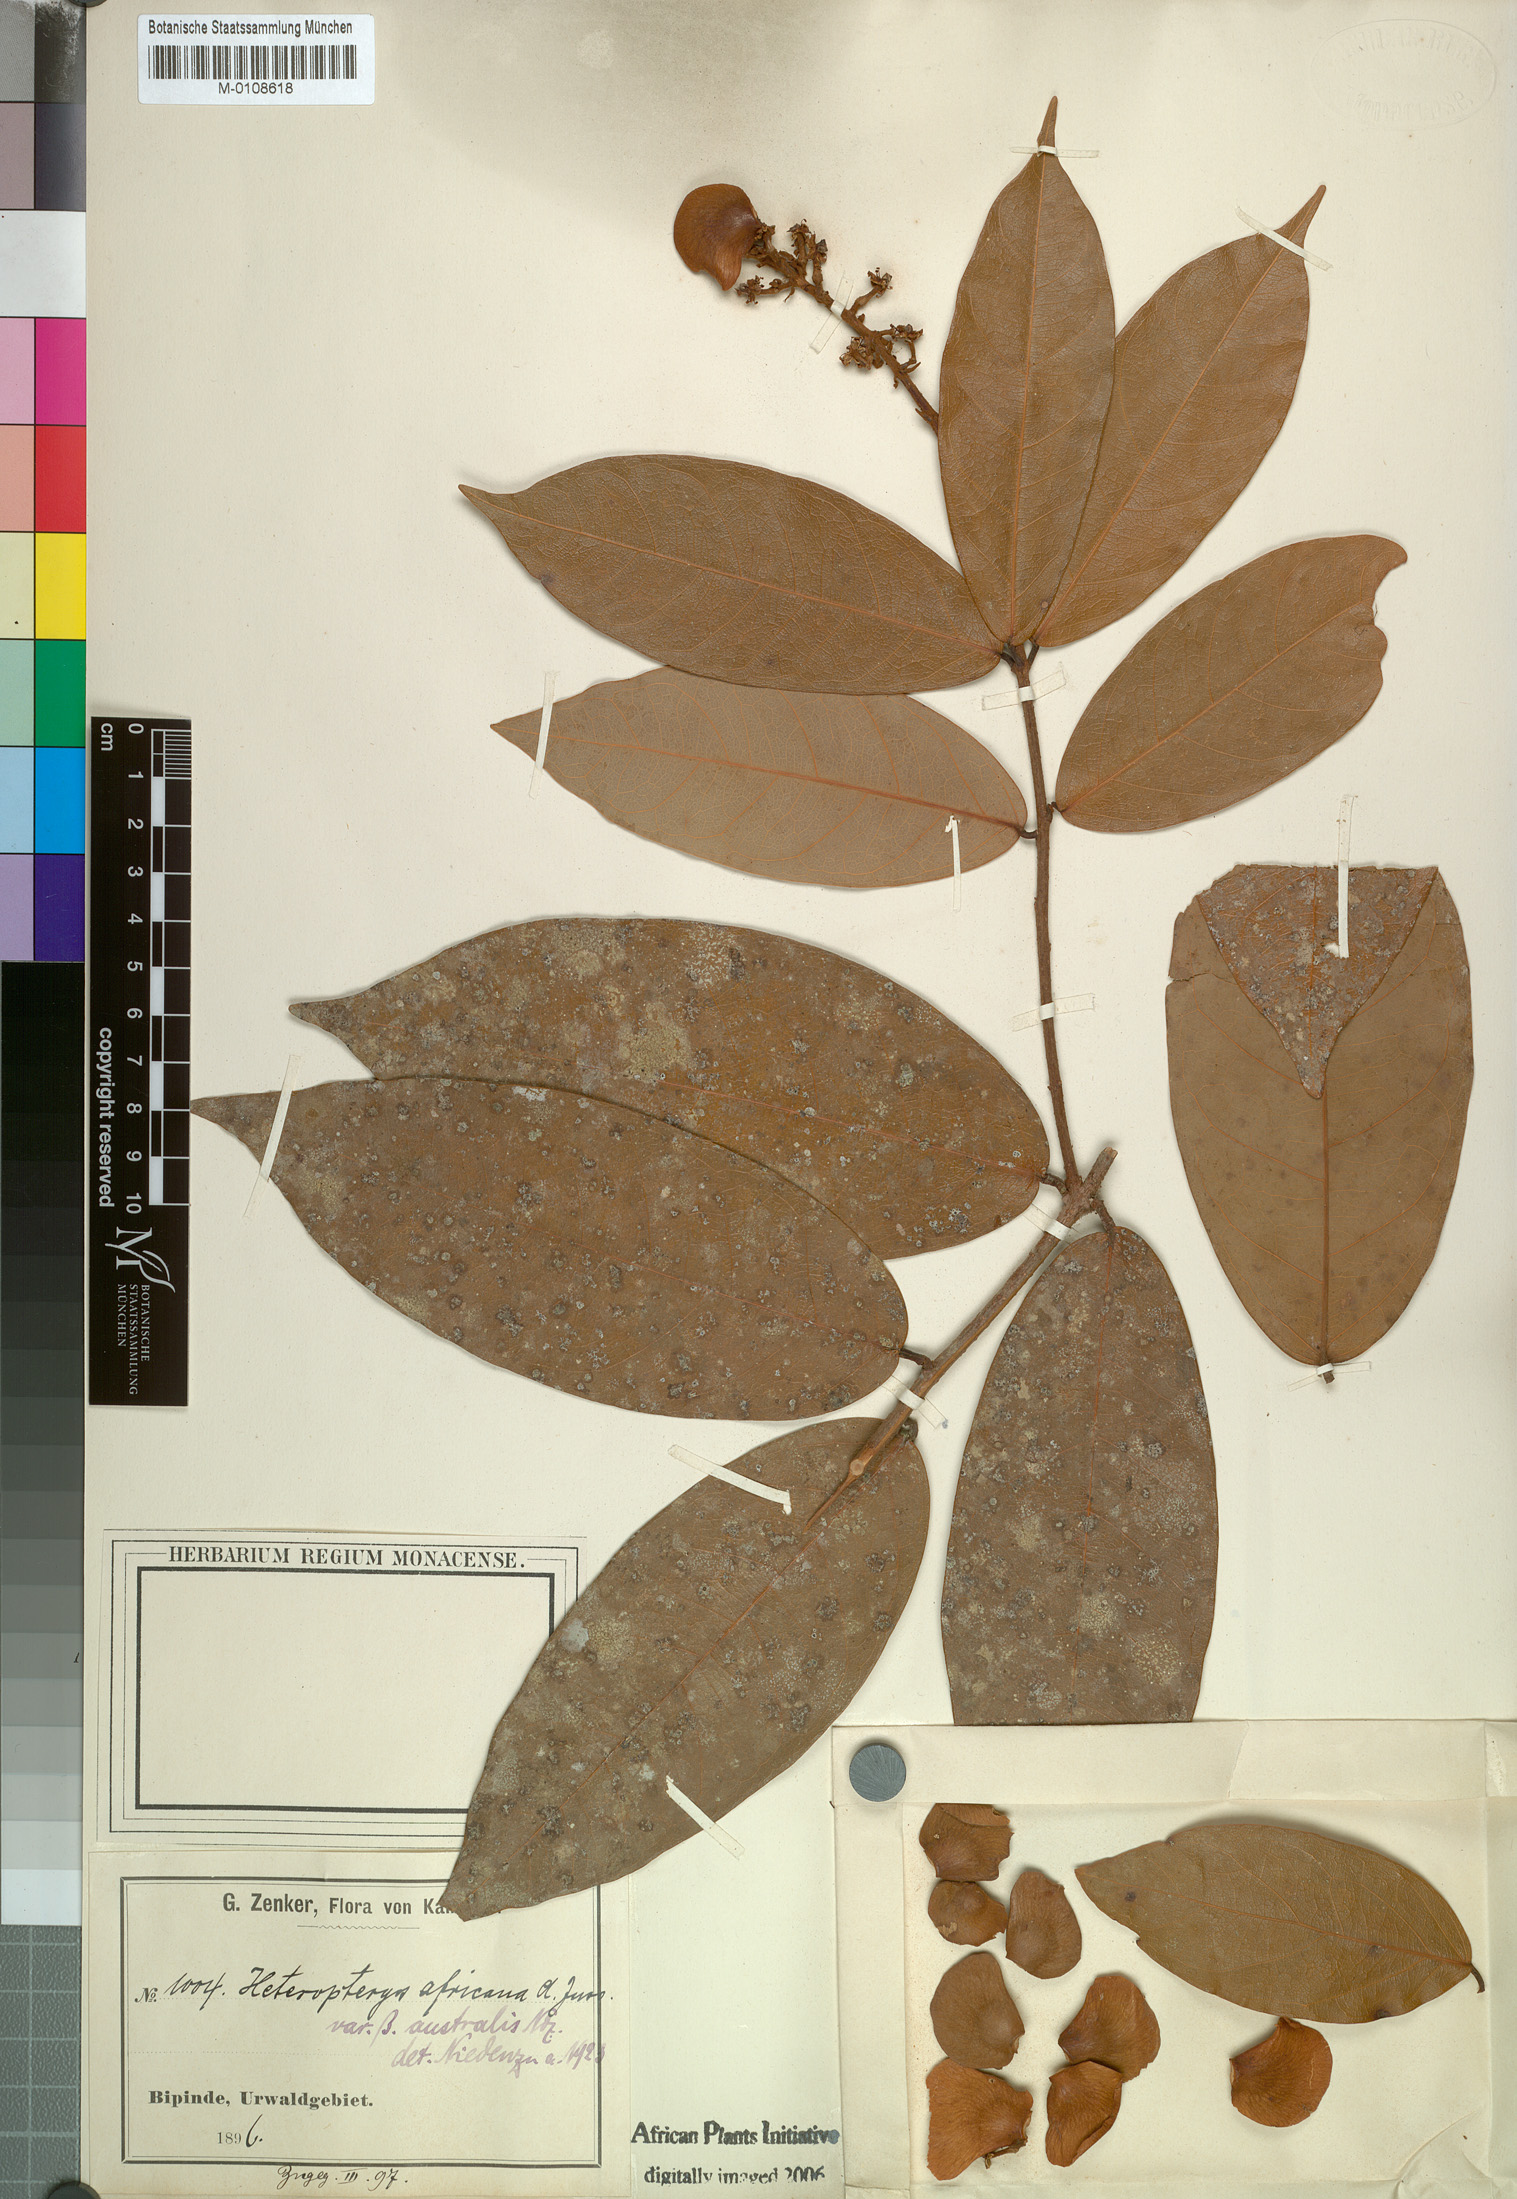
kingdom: Plantae
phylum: Tracheophyta
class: Magnoliopsida
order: Malpighiales
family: Malpighiaceae
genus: Heteropterys
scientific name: Heteropterys leona
